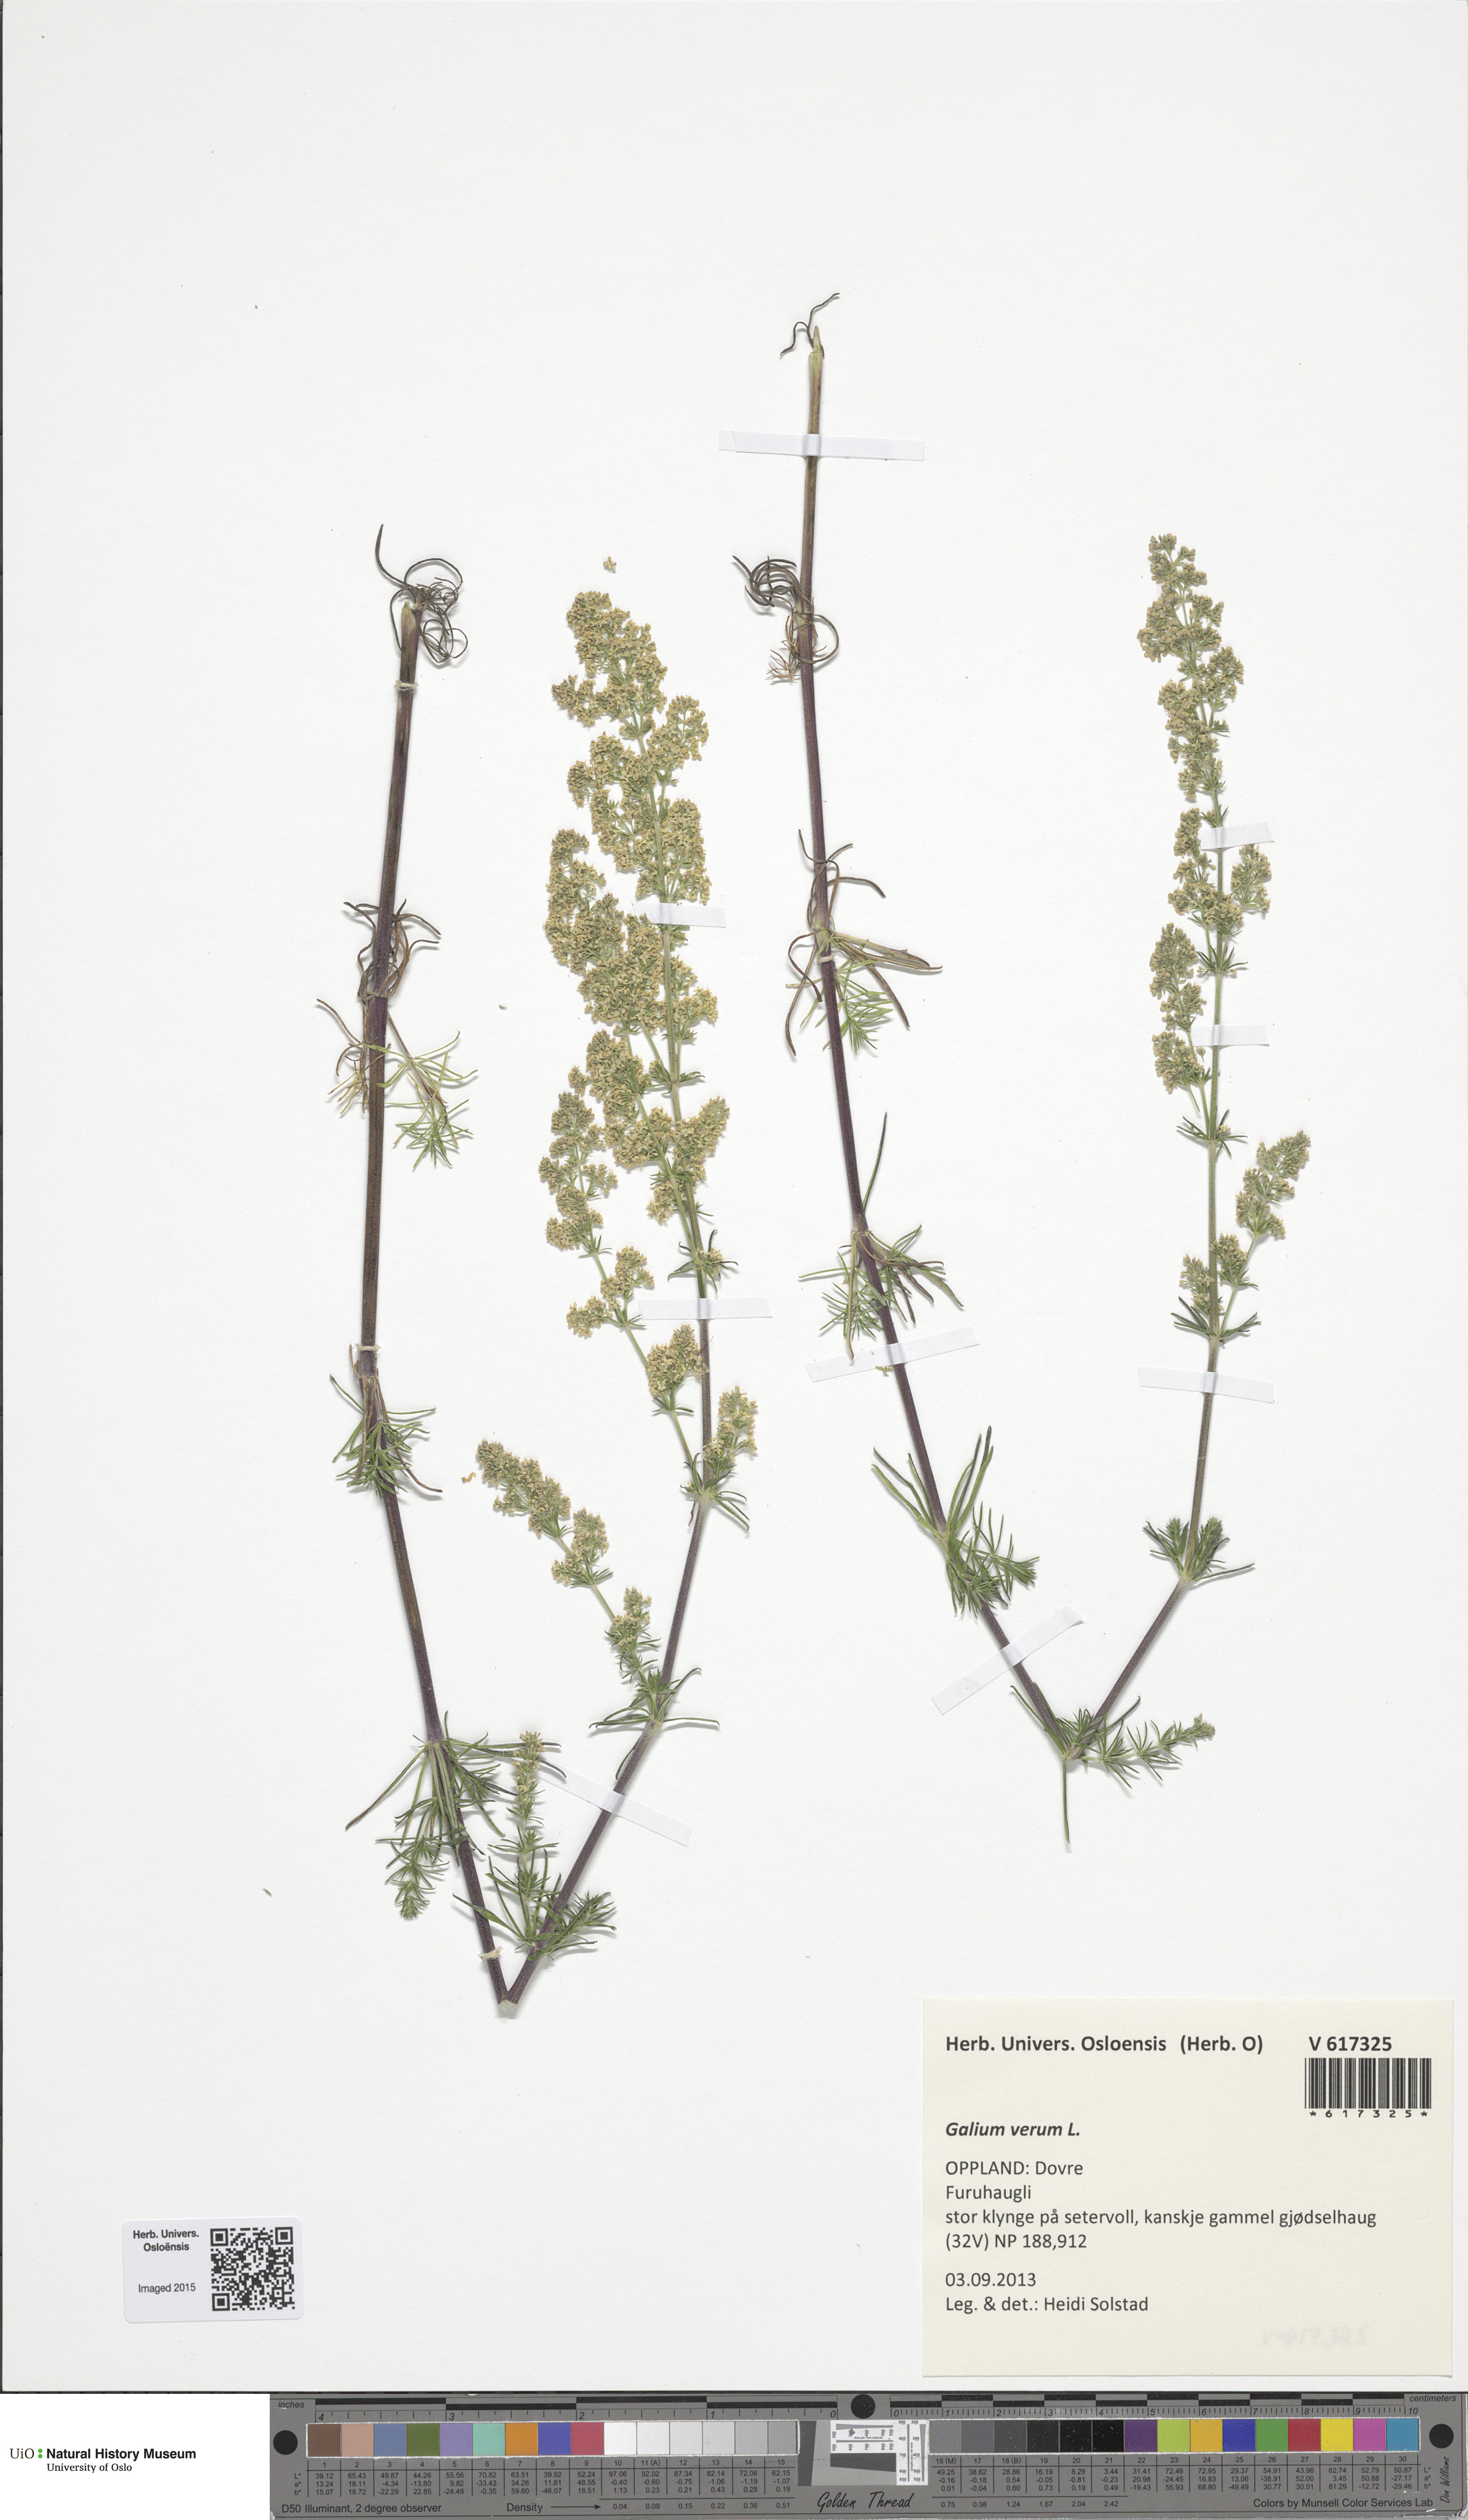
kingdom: Plantae
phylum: Tracheophyta
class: Magnoliopsida
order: Gentianales
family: Rubiaceae
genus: Galium
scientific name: Galium verum
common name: Lady's bedstraw
